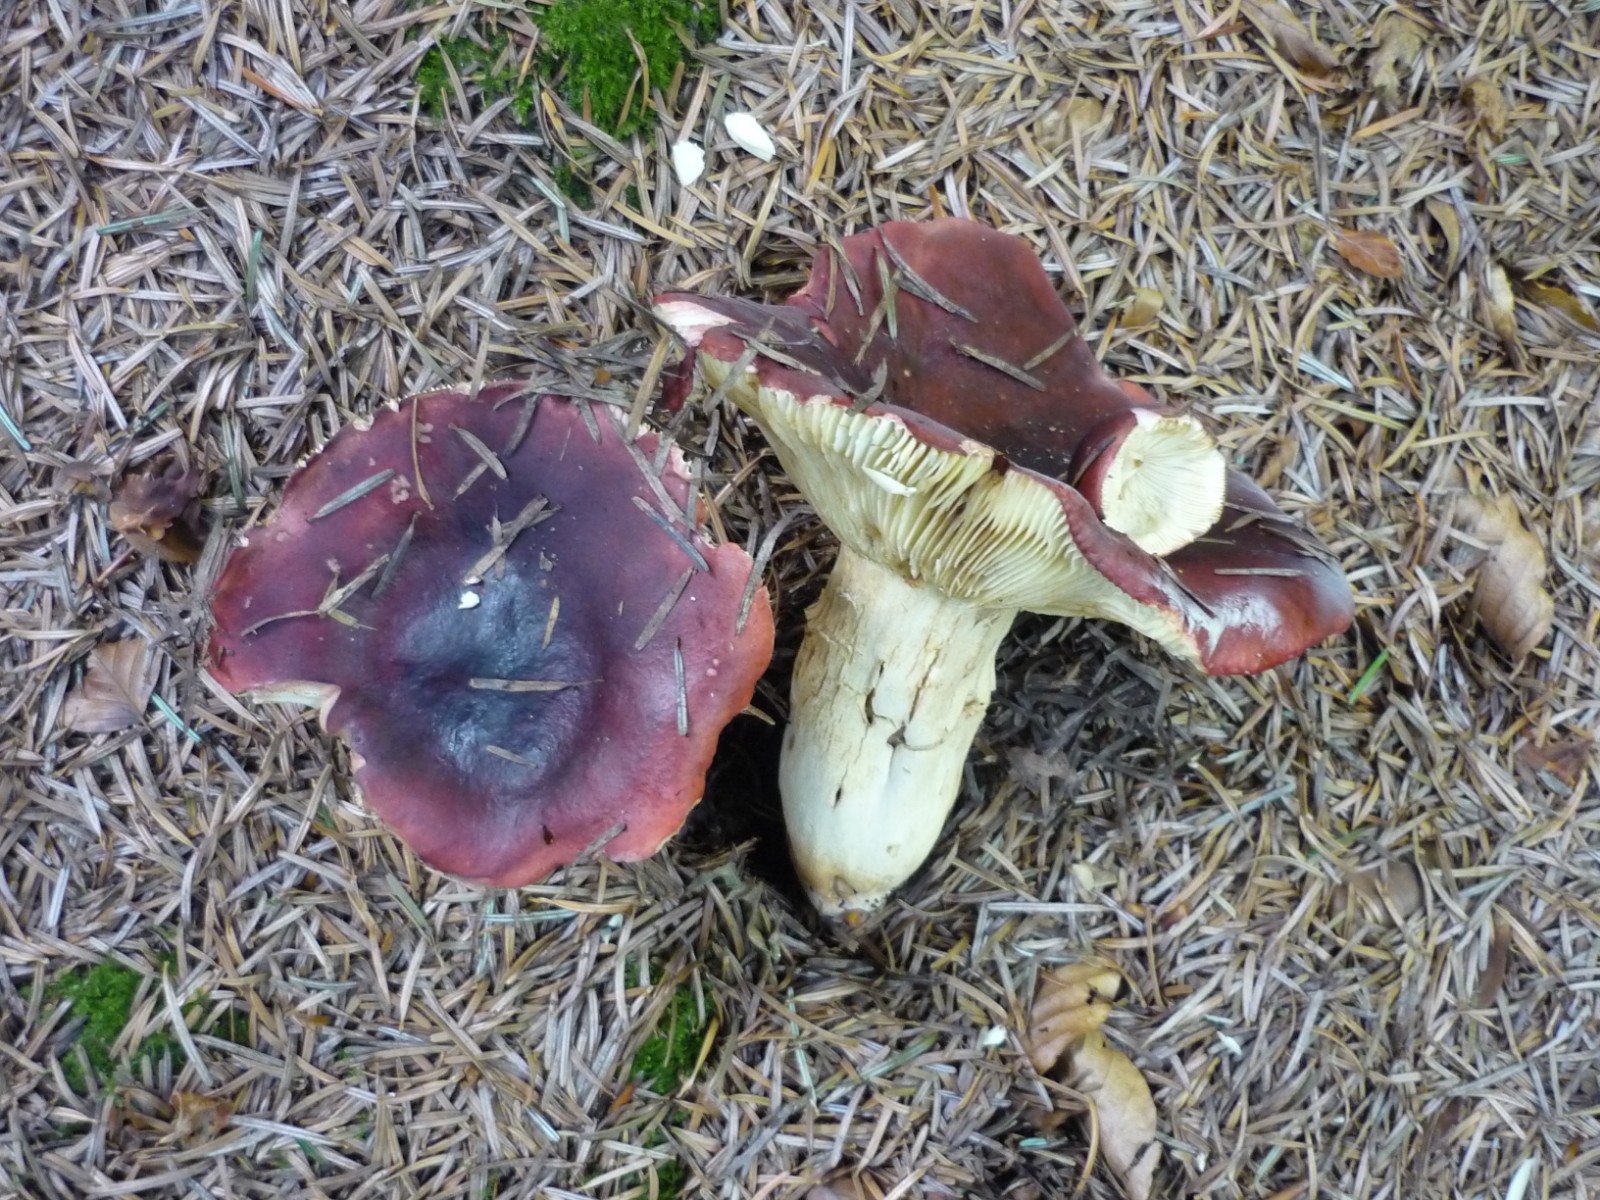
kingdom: Fungi
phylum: Basidiomycota
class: Agaricomycetes
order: Russulales
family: Russulaceae
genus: Russula
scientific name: Russula viscida
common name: knippe-skørhat
